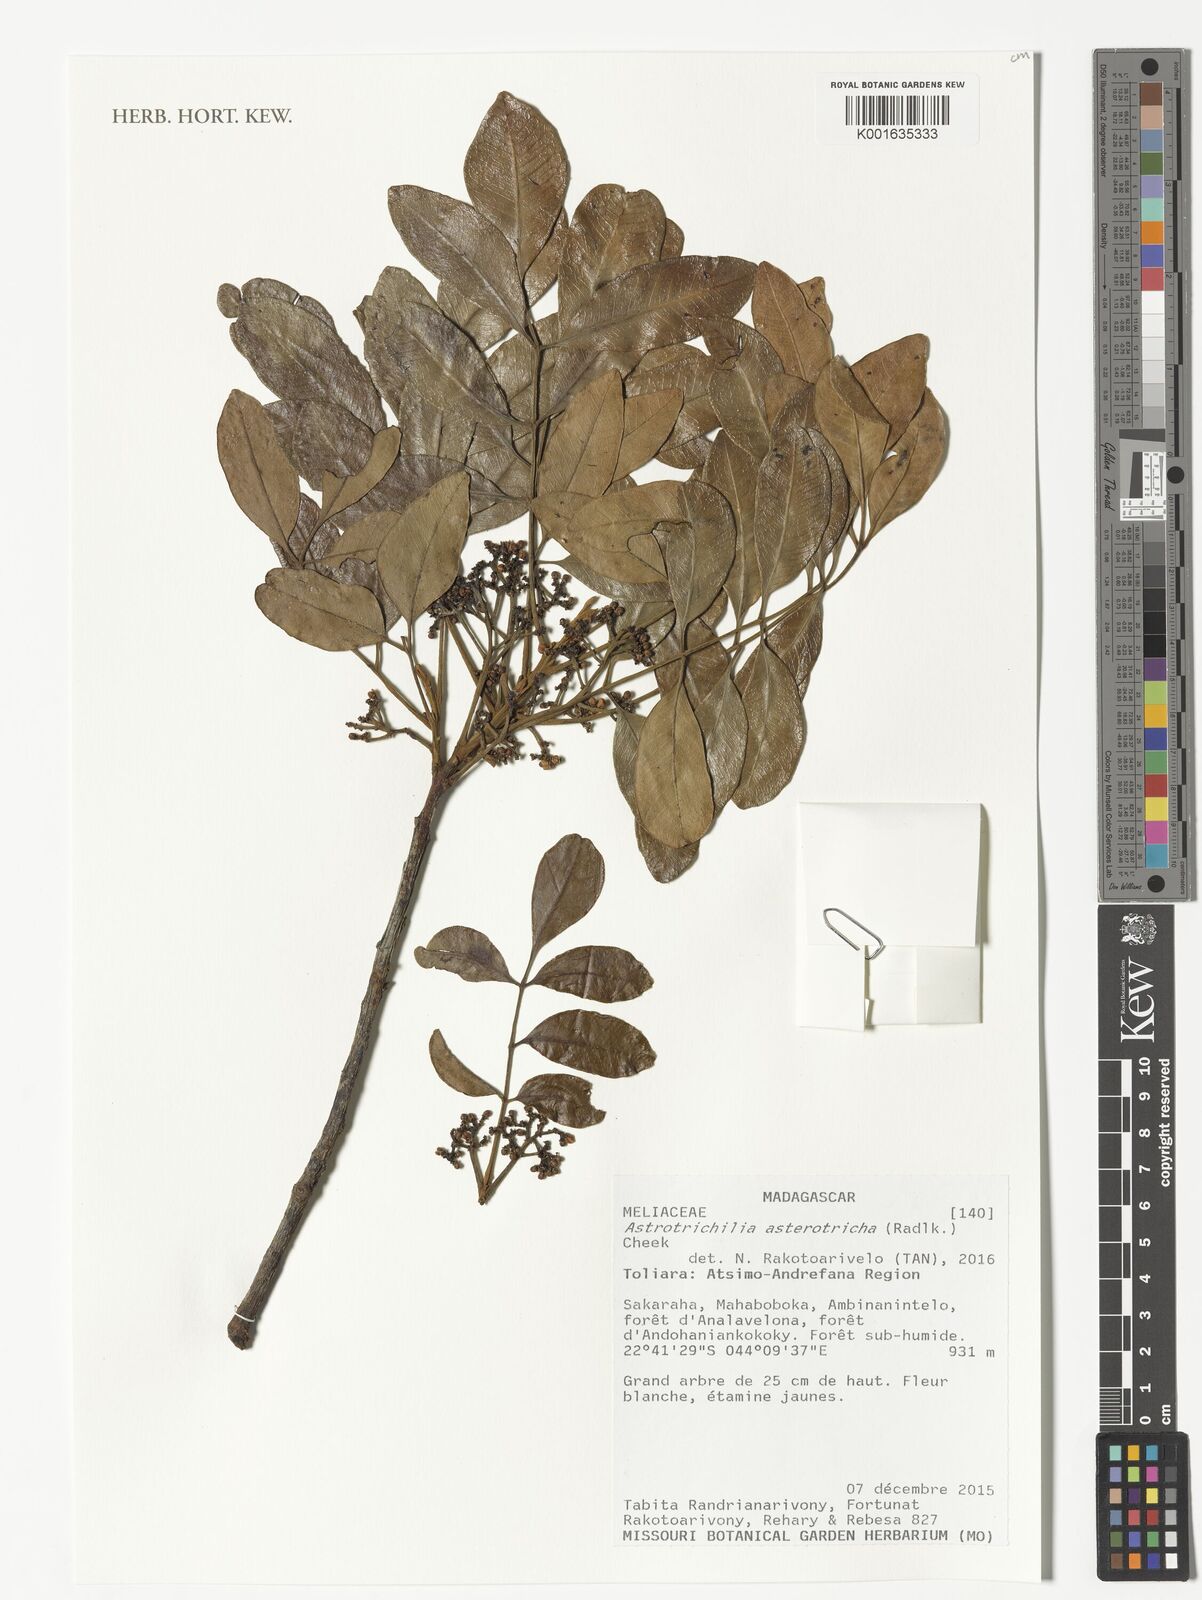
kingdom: Plantae
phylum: Tracheophyta
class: Magnoliopsida
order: Sapindales
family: Meliaceae
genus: Astrotrichilia
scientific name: Astrotrichilia asterotricha
